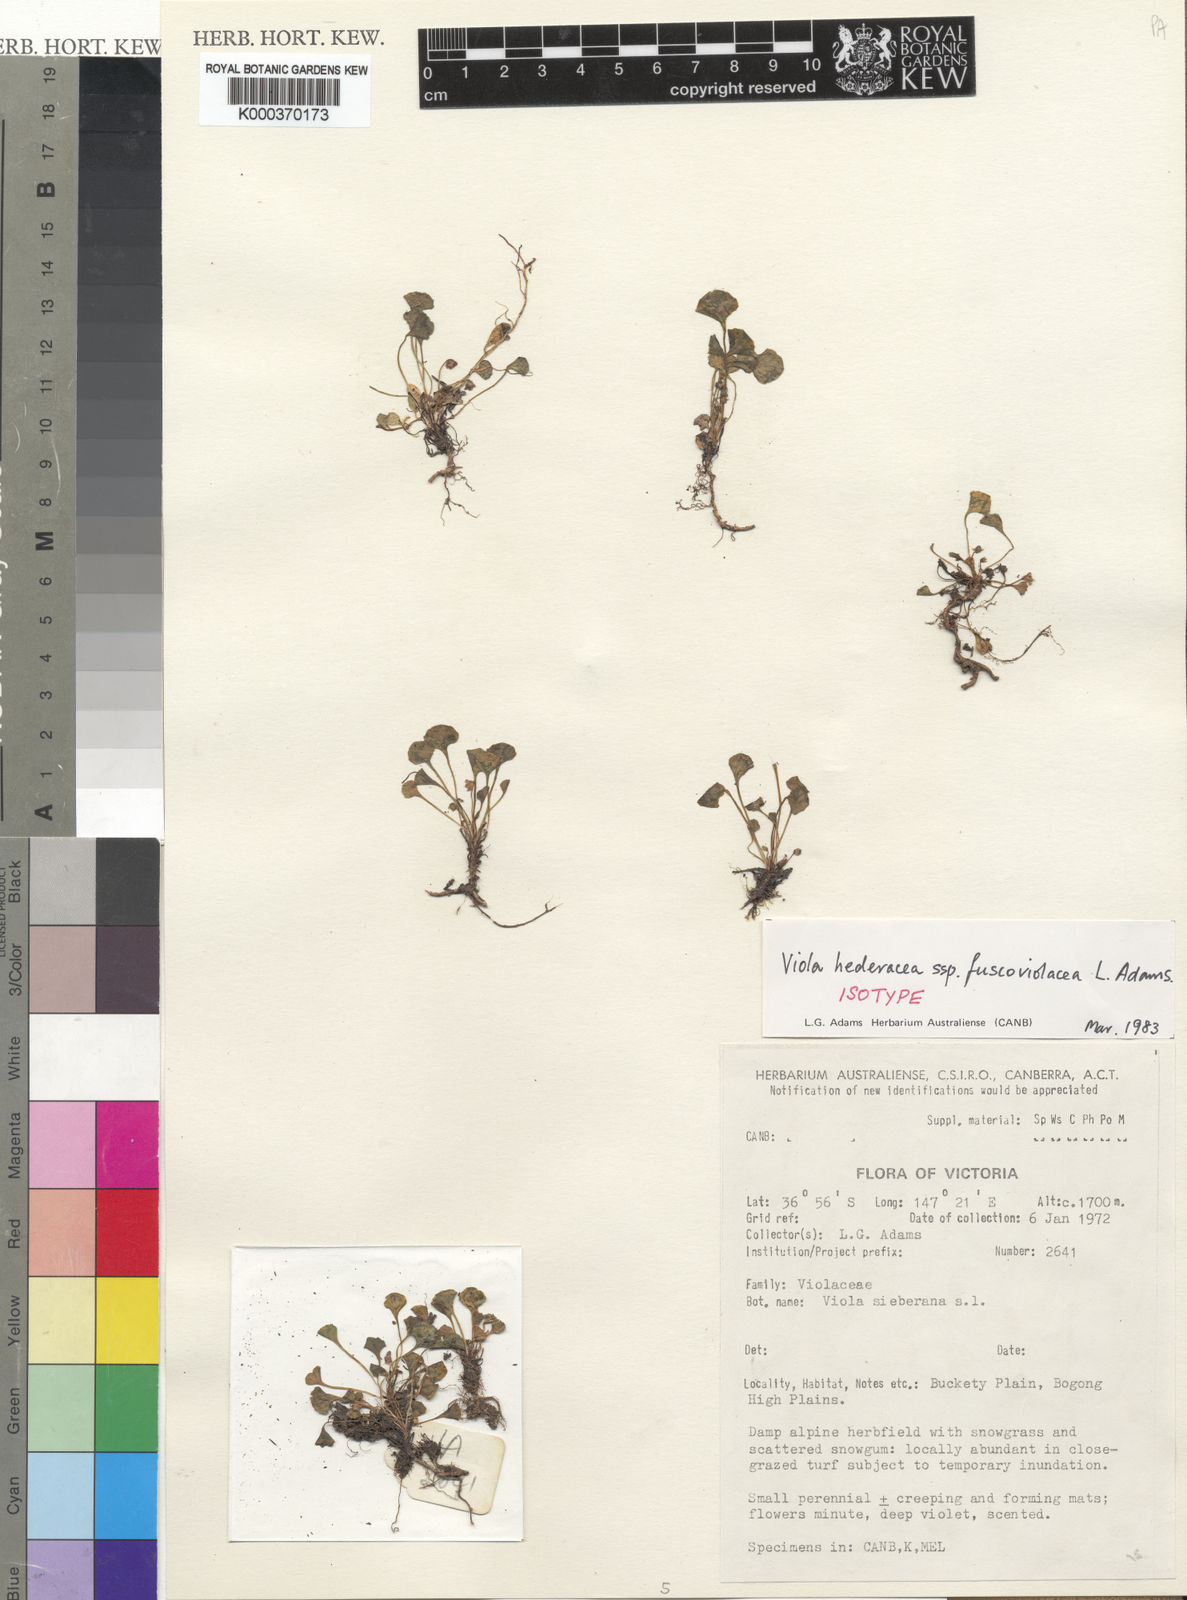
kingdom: Plantae
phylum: Tracheophyta
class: Magnoliopsida
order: Malpighiales
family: Violaceae
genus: Viola
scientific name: Viola fuscoviolacea
